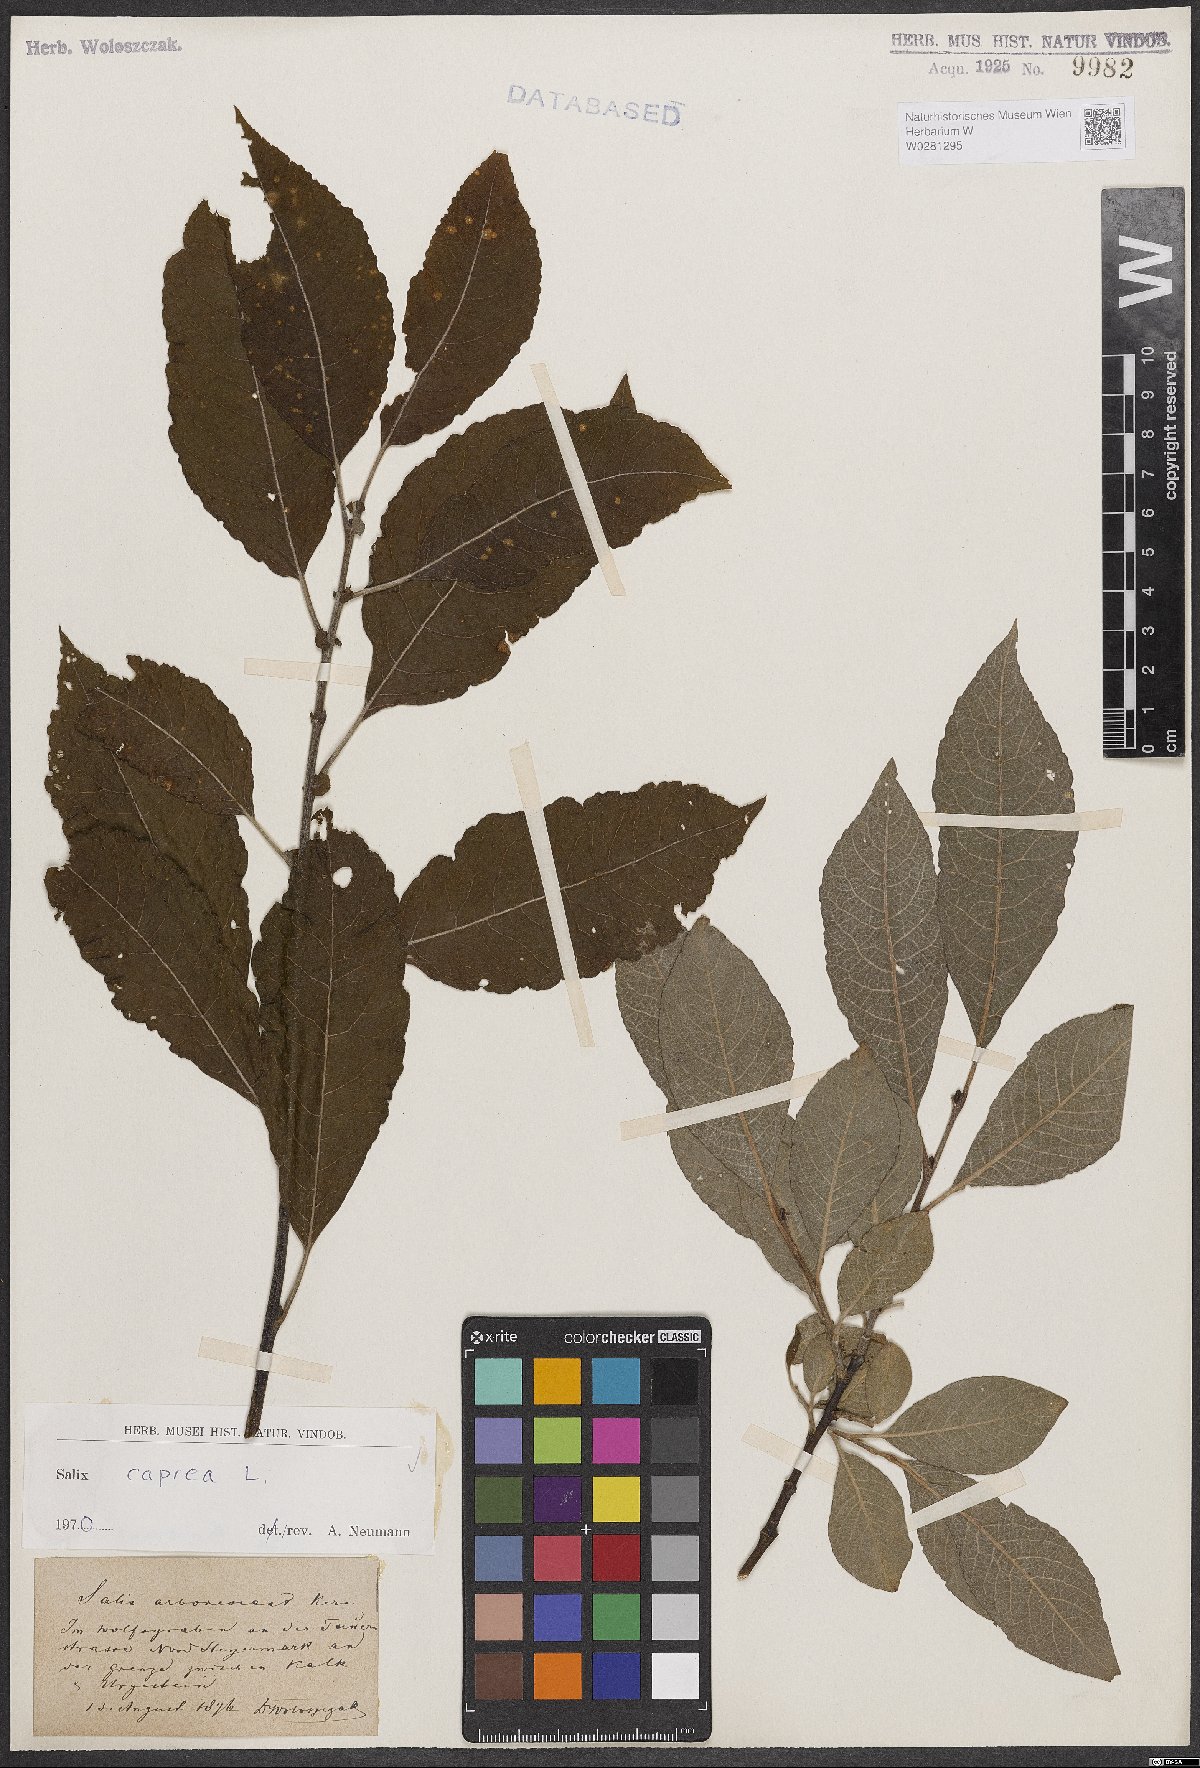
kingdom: Plantae
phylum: Tracheophyta
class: Magnoliopsida
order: Malpighiales
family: Salicaceae
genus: Salix
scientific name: Salix caprea
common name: Goat willow
